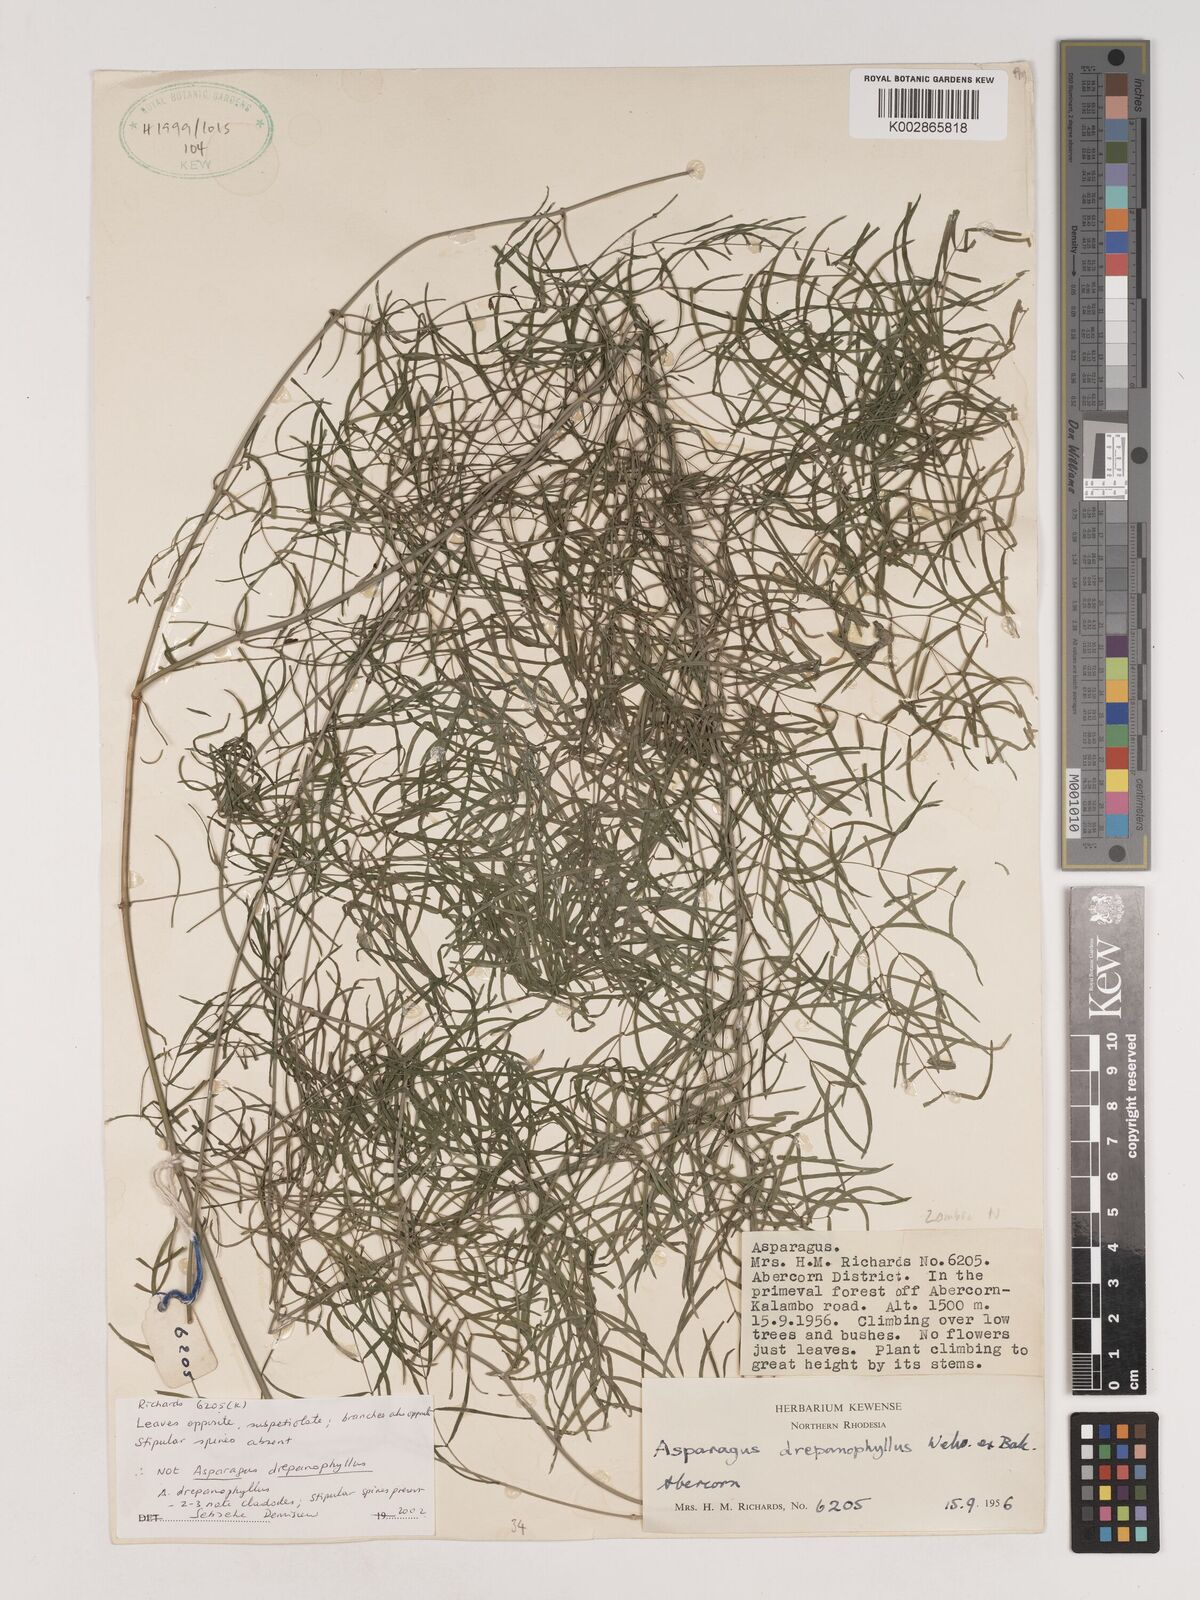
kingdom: Plantae
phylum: Tracheophyta
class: Liliopsida
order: Asparagales
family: Asparagaceae
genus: Asparagus
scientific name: Asparagus drepanophyllus
